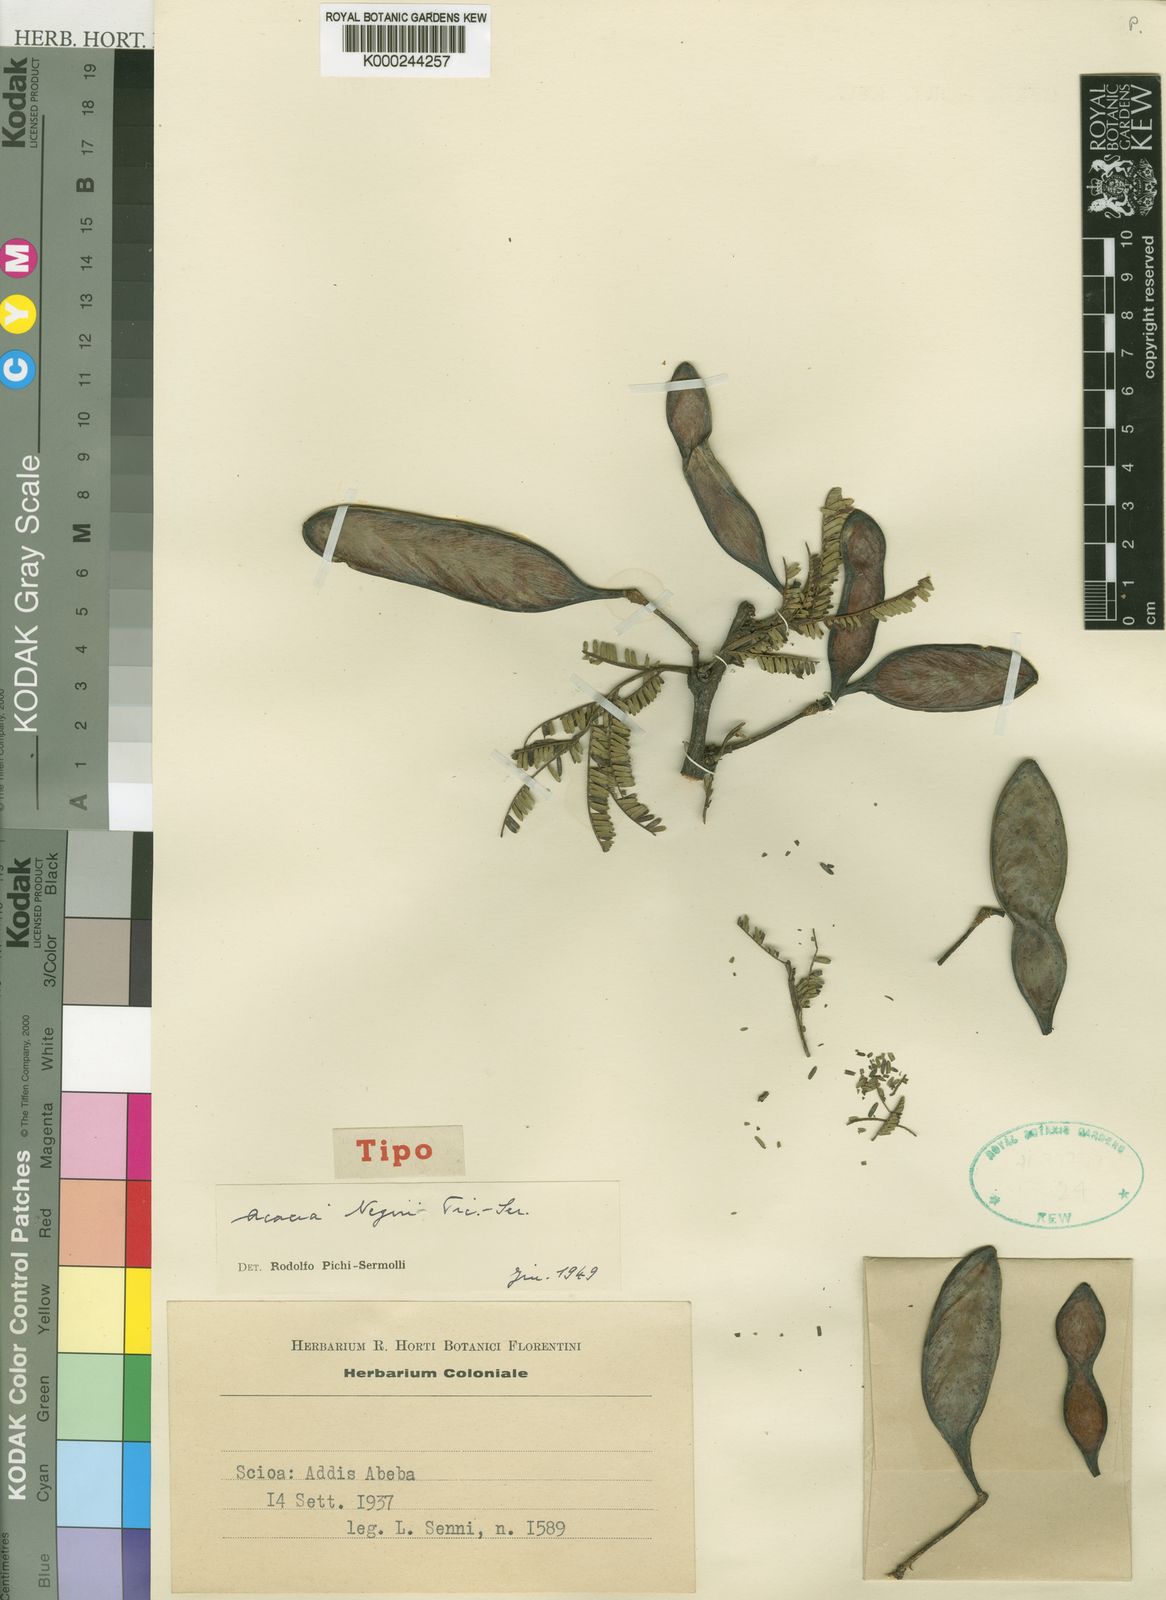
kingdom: Plantae
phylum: Tracheophyta
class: Magnoliopsida
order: Fabales
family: Fabaceae
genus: Vachellia
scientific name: Vachellia negrii
